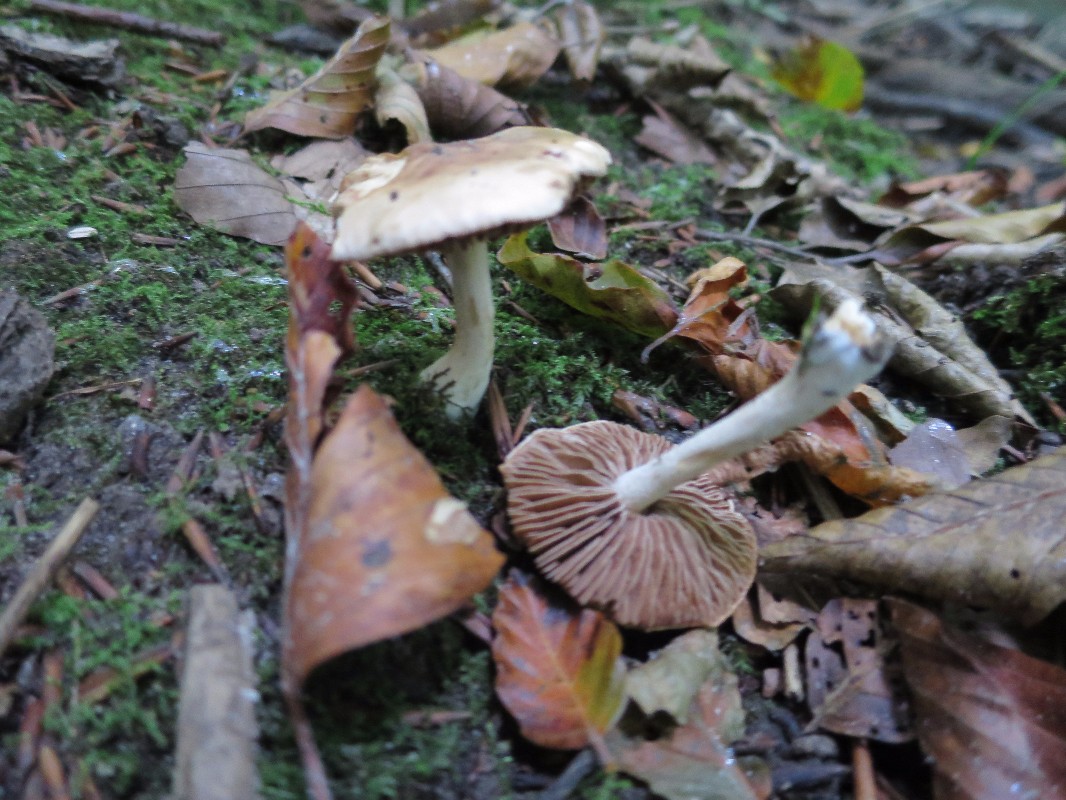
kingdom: Fungi
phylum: Basidiomycota
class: Agaricomycetes
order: Agaricales
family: Hymenogastraceae
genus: Hebeloma
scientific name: Hebeloma
